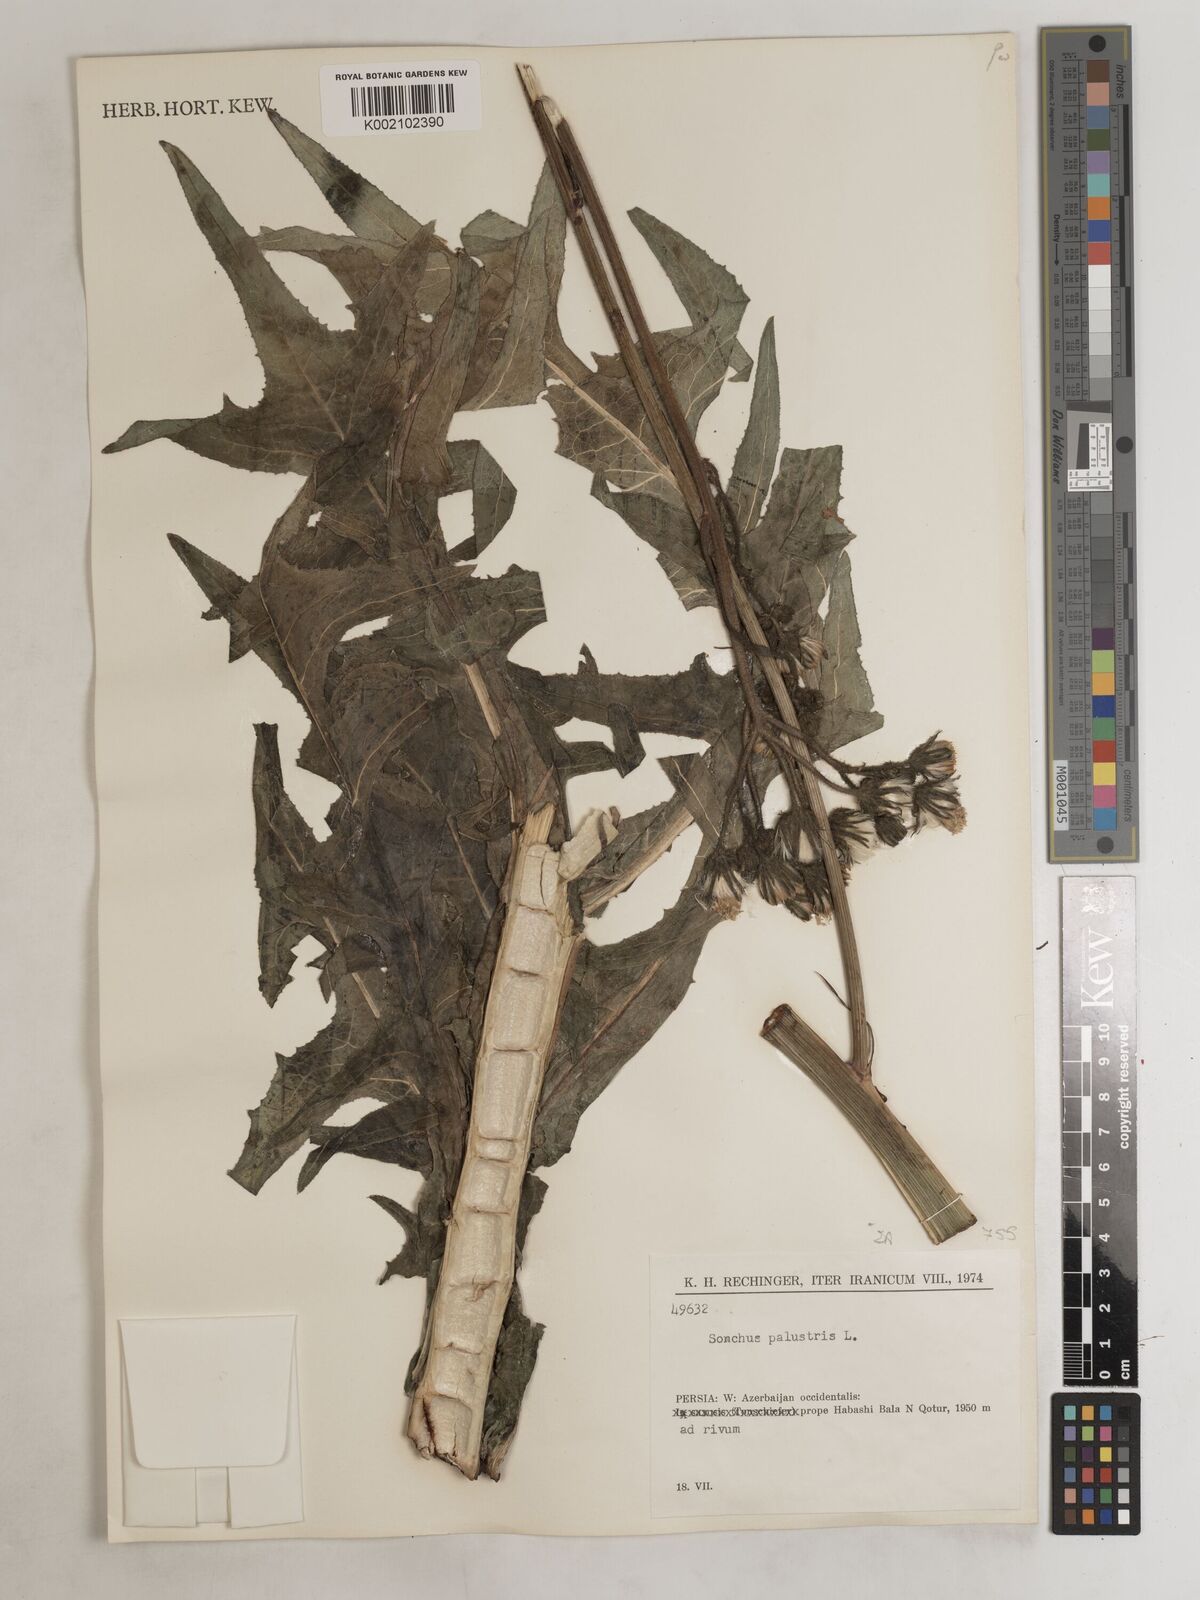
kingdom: Plantae
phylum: Tracheophyta
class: Magnoliopsida
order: Asterales
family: Asteraceae
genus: Sonchus
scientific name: Sonchus palustris
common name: Marsh sow-thistle
